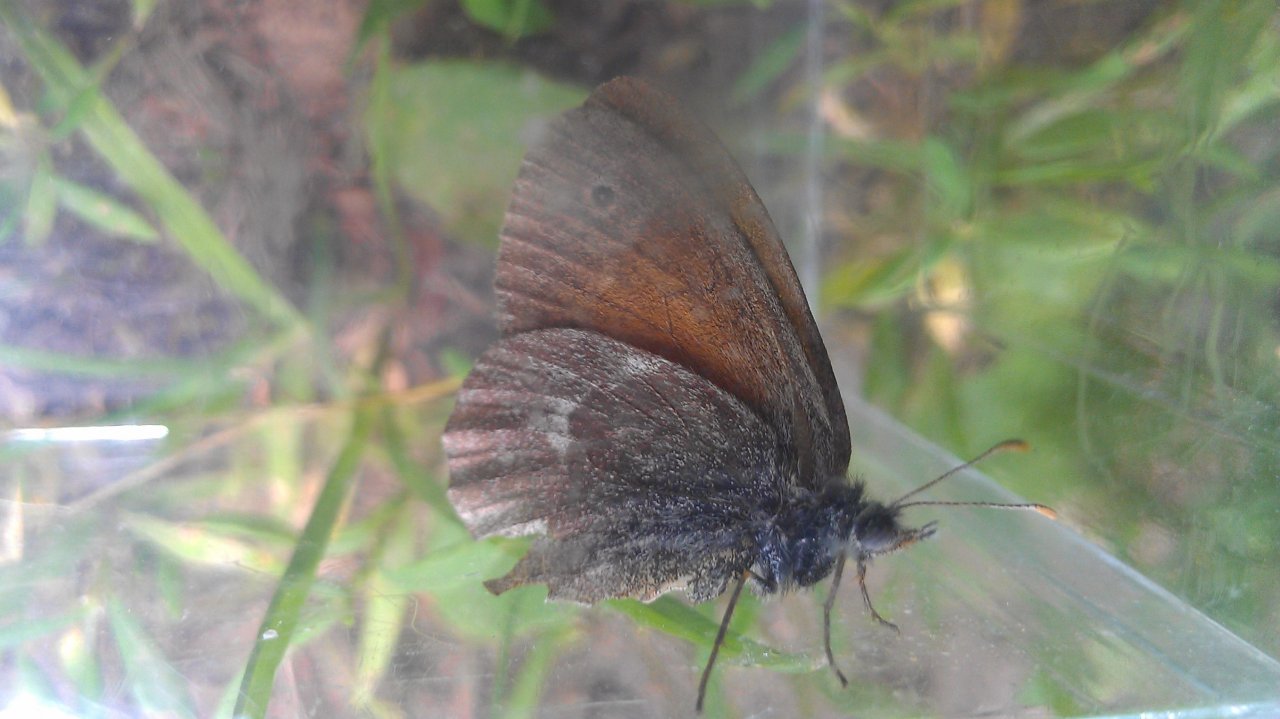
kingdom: Animalia
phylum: Arthropoda
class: Insecta
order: Lepidoptera
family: Nymphalidae
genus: Coenonympha
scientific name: Coenonympha tullia
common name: Large Heath
